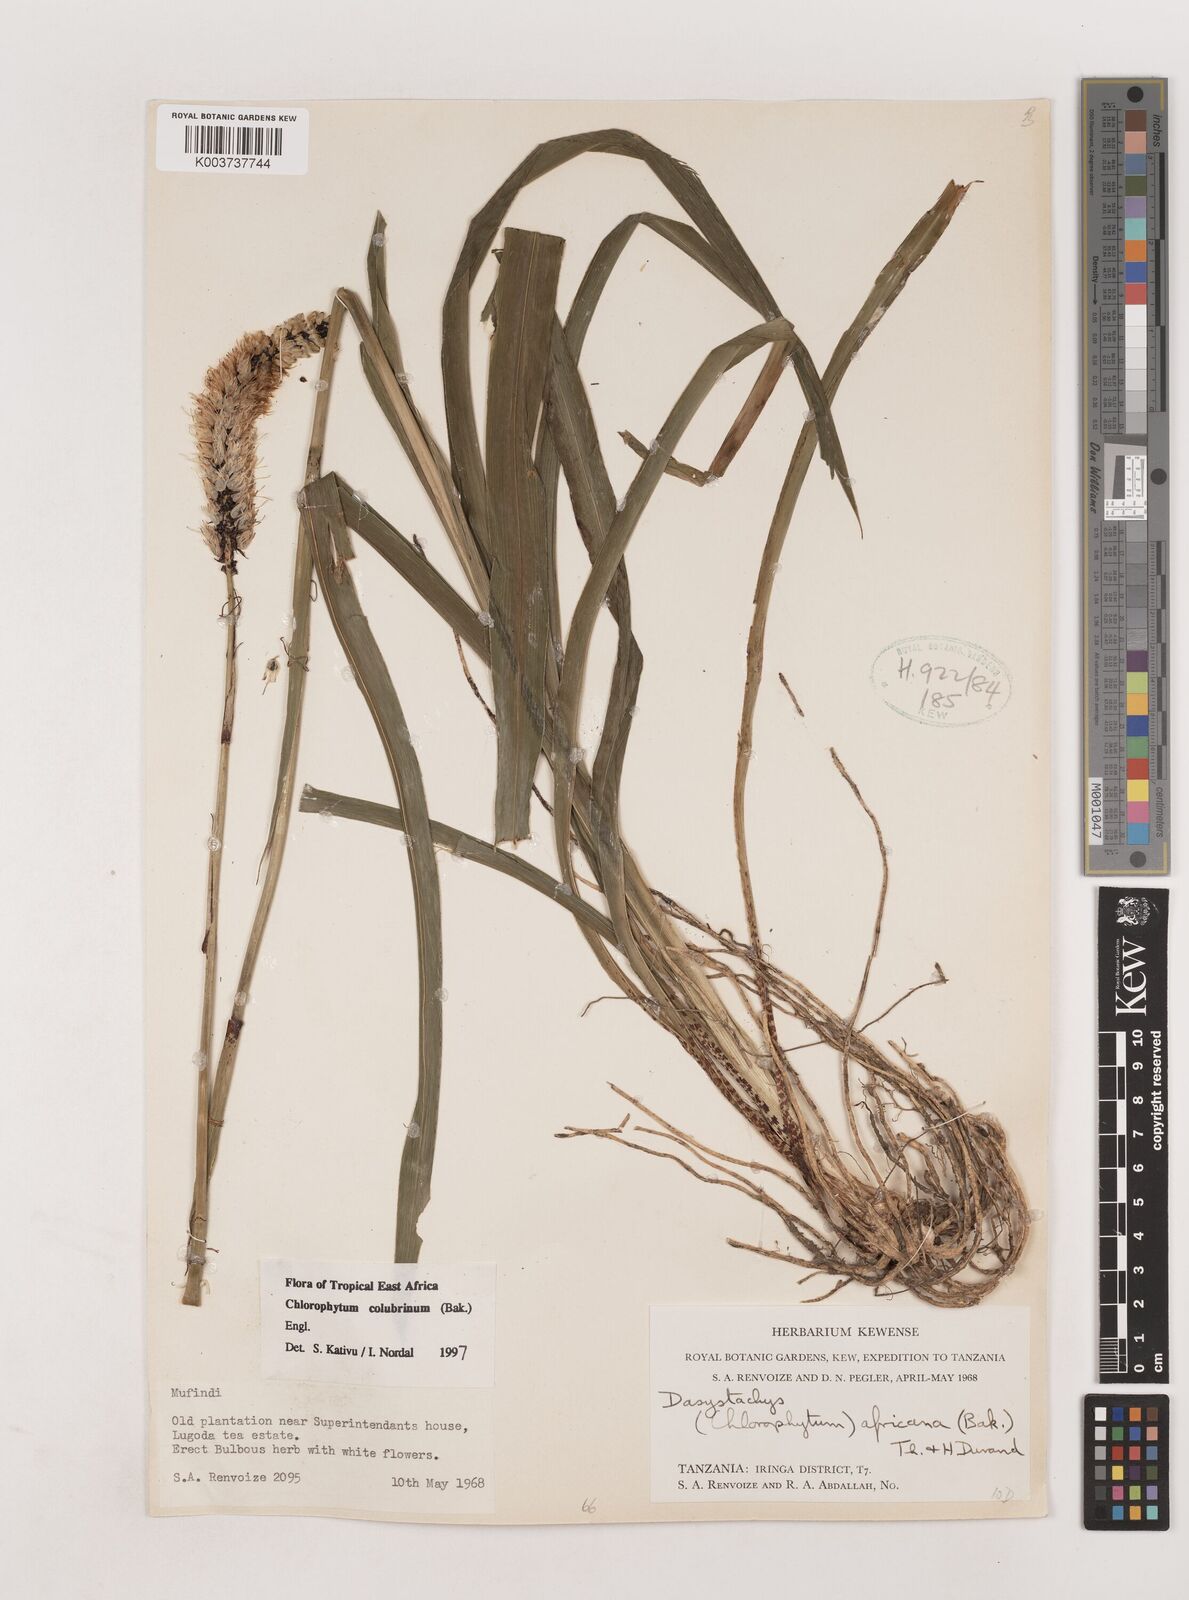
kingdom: Plantae
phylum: Tracheophyta
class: Liliopsida
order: Asparagales
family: Asparagaceae
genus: Chlorophytum
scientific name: Chlorophytum colubrinum
